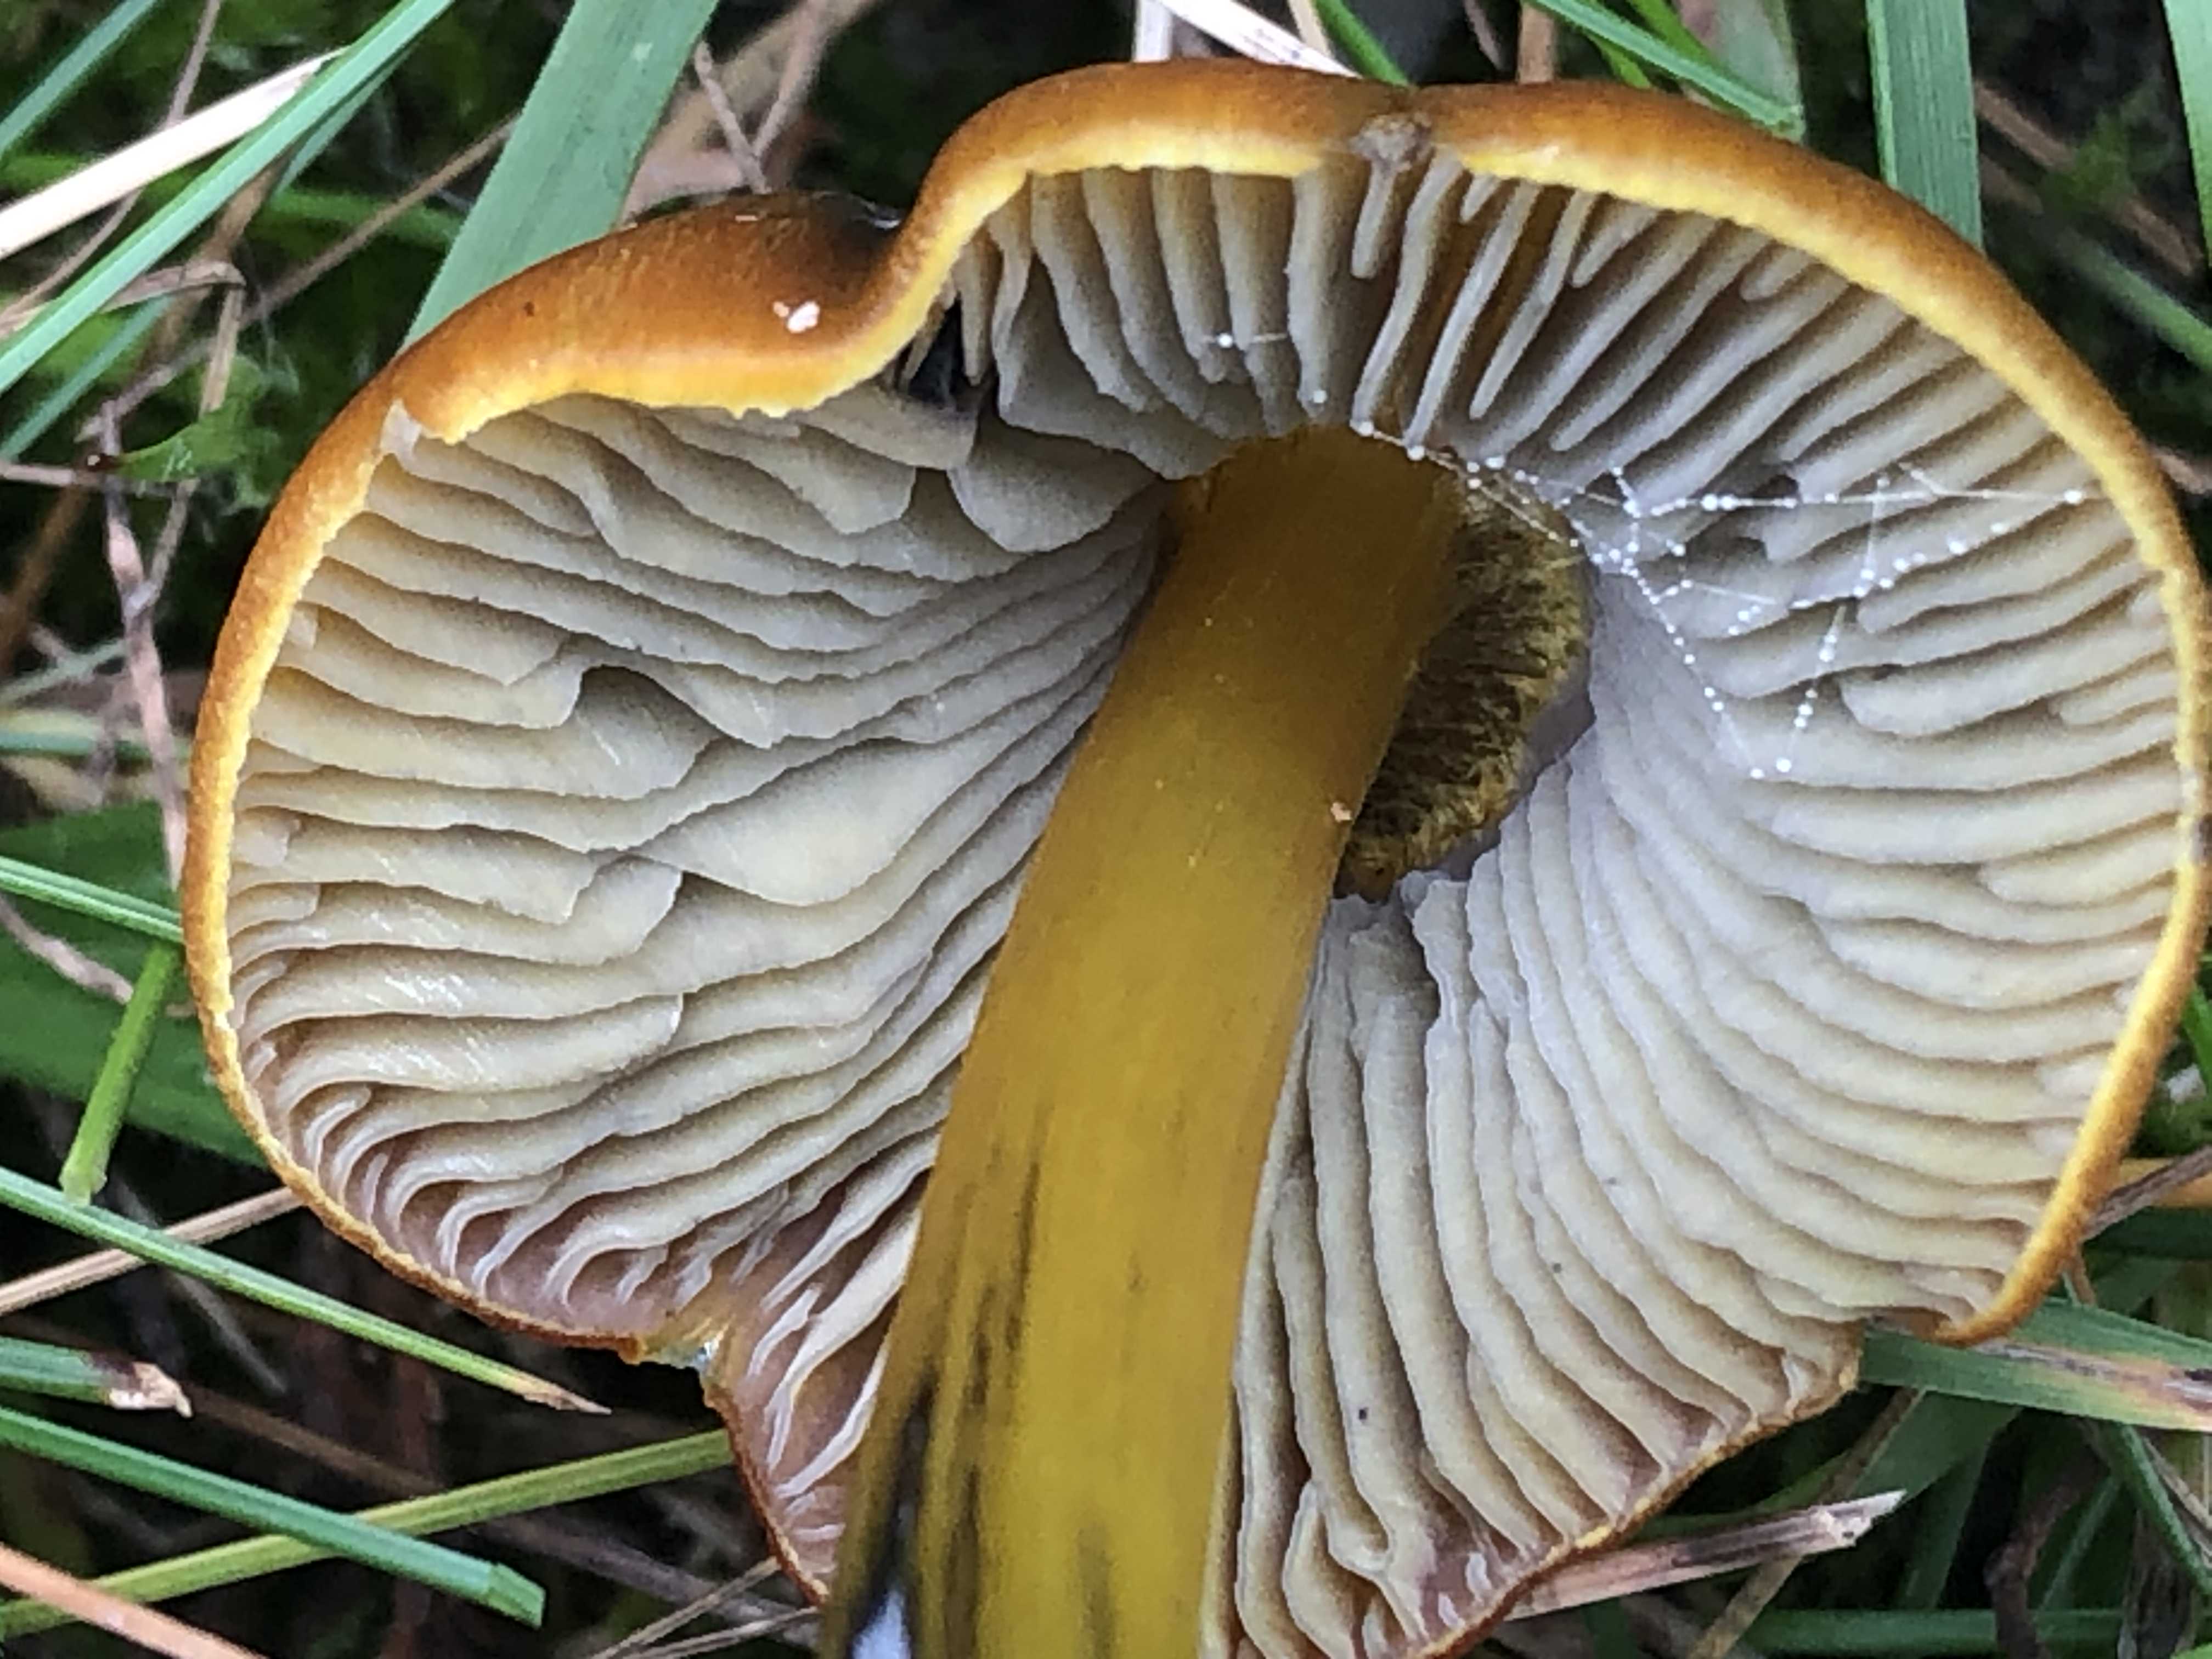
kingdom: Fungi
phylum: Basidiomycota
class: Agaricomycetes
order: Agaricales
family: Hygrophoraceae
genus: Hygrocybe
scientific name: Hygrocybe conica
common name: kegle-vokshat
